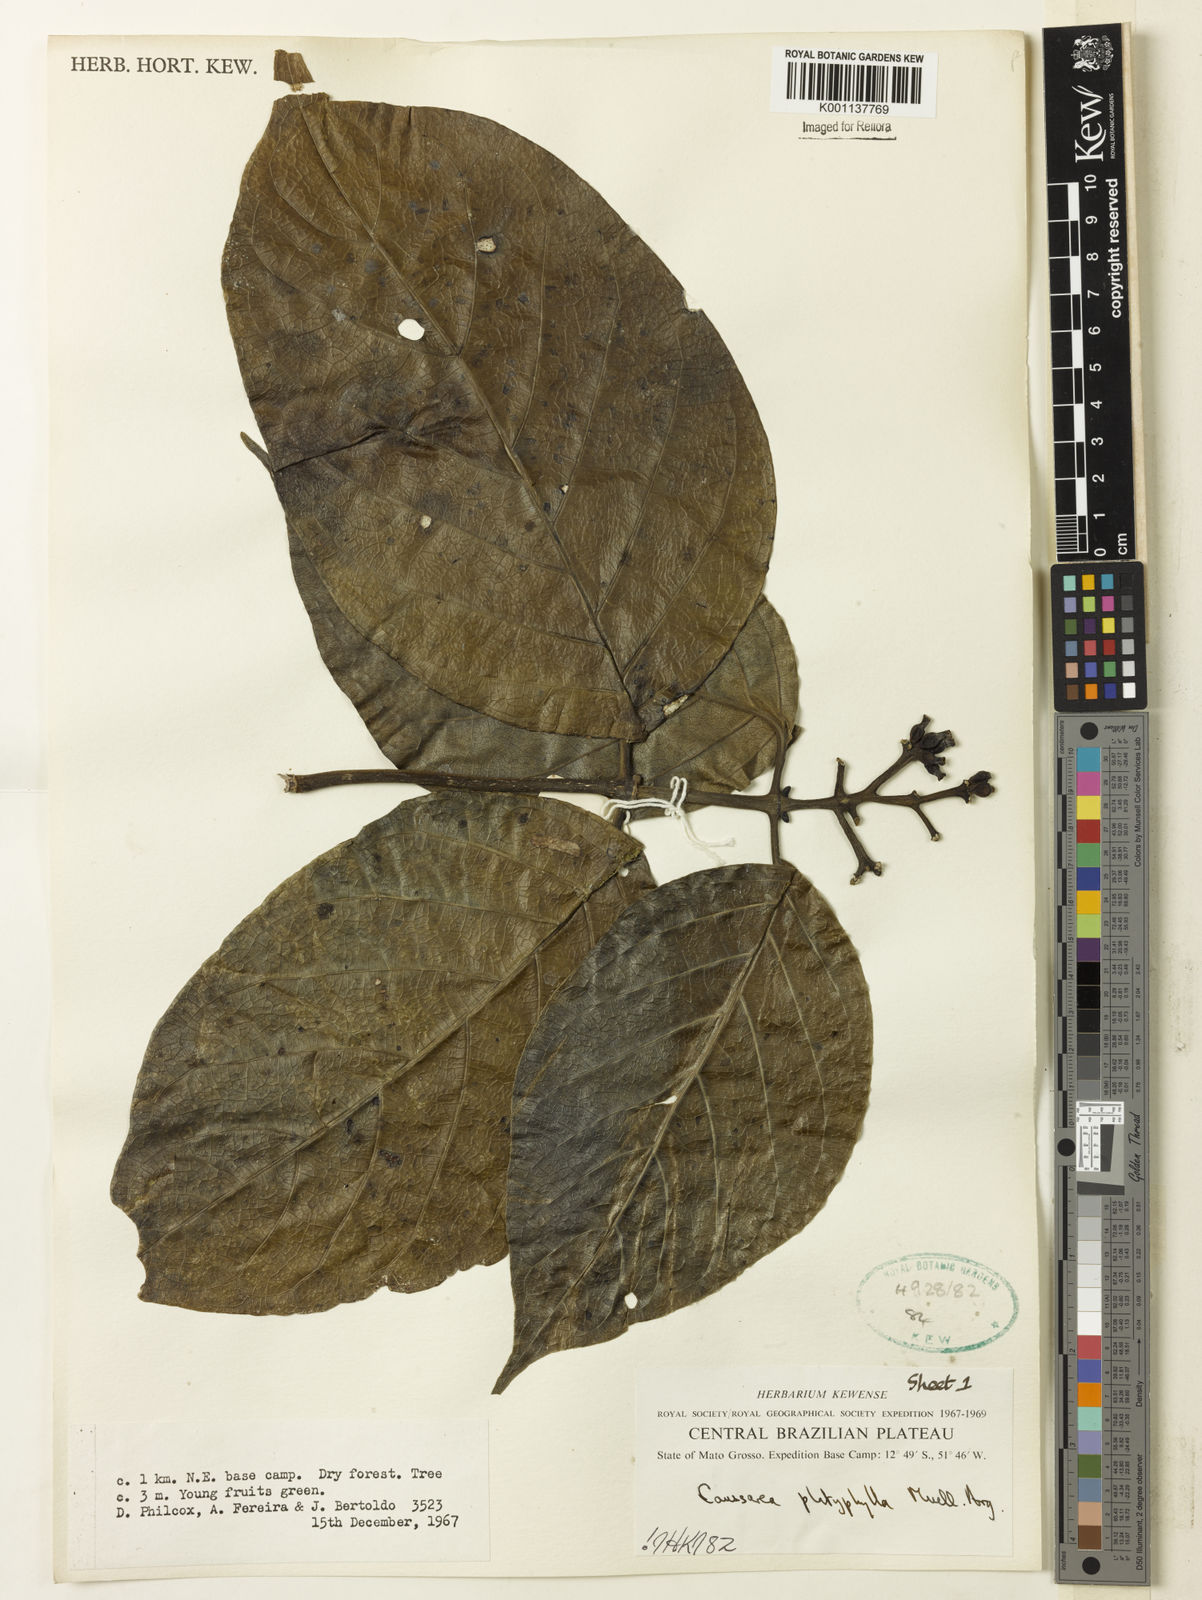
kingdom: Plantae
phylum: Tracheophyta
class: Magnoliopsida
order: Gentianales
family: Rubiaceae
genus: Coussarea
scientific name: Coussarea
